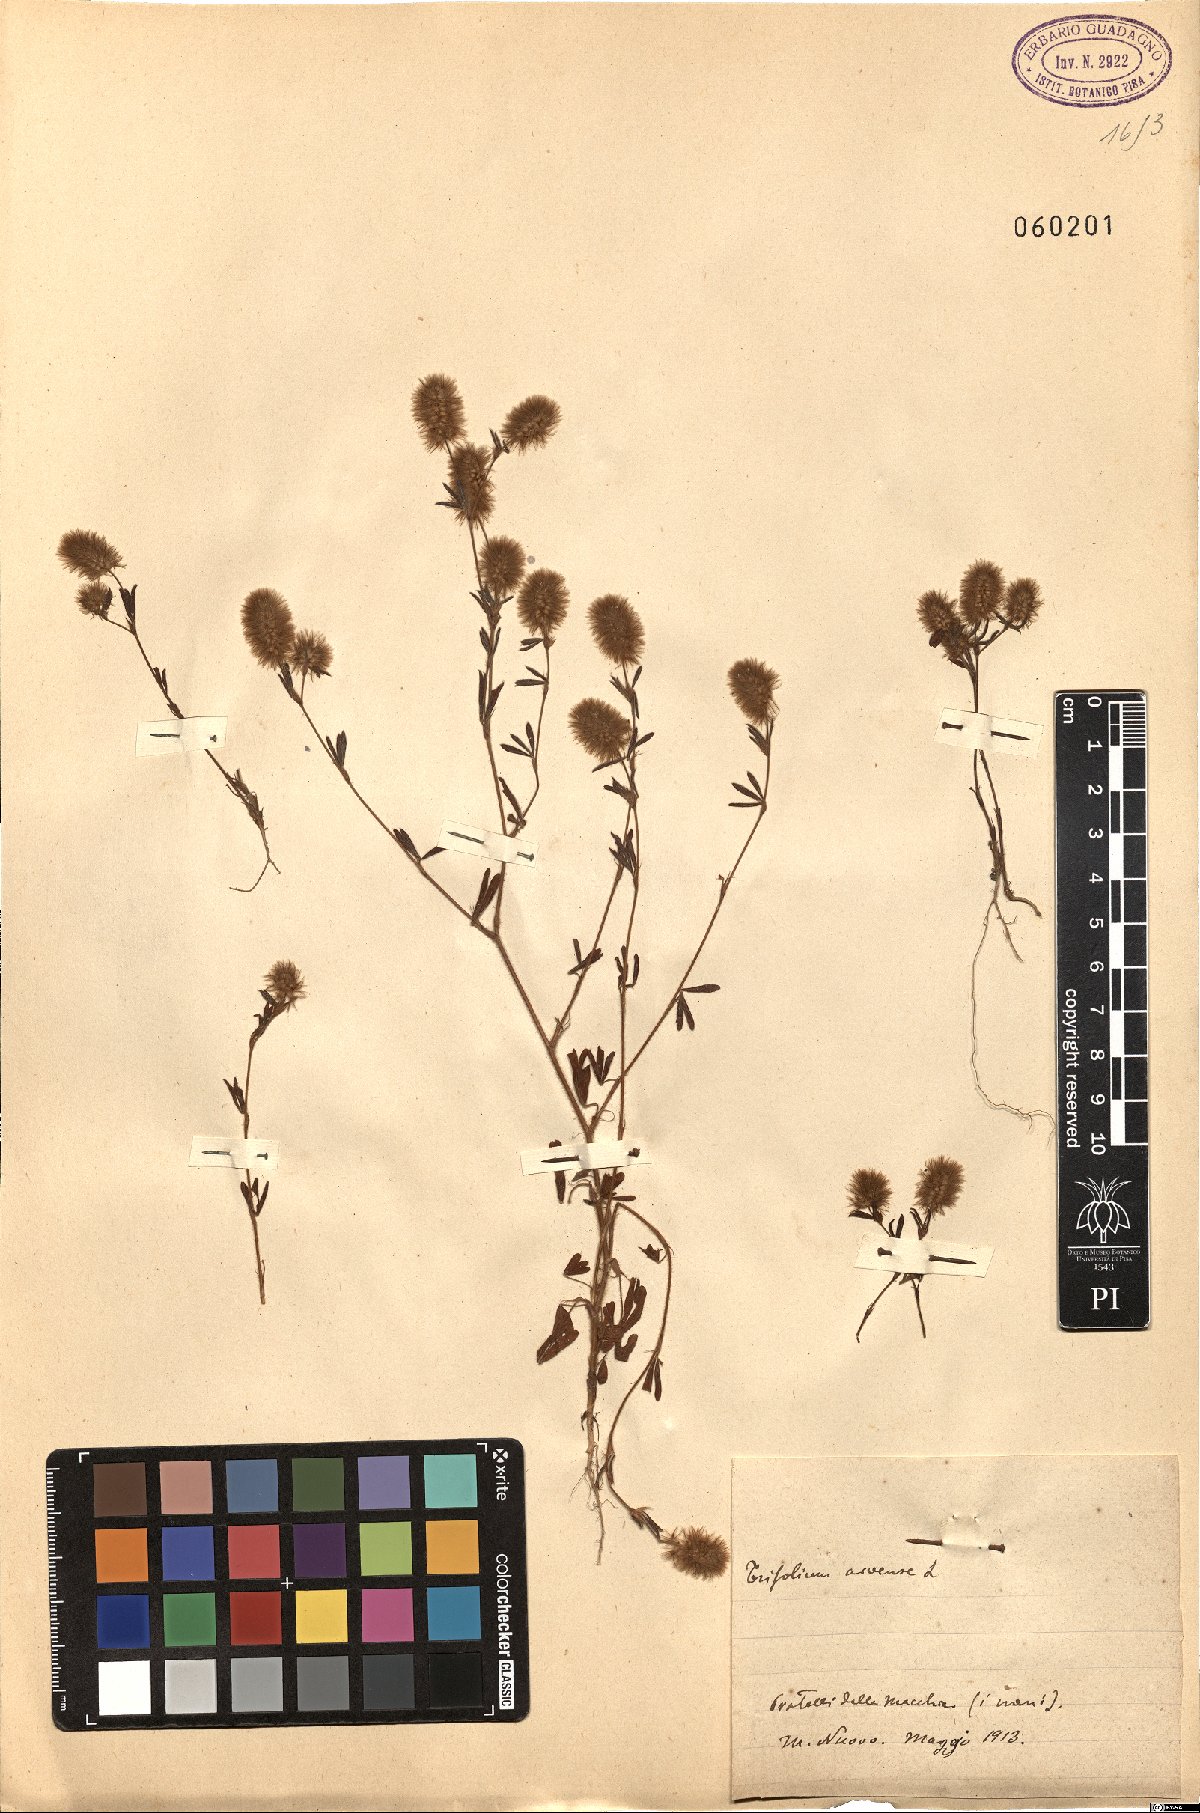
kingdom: Plantae
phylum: Tracheophyta
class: Magnoliopsida
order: Fabales
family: Fabaceae
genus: Trifolium
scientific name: Trifolium arvense
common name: Hare's-foot clover
